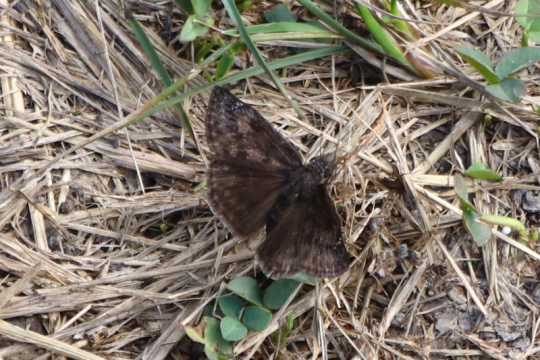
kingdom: Animalia
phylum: Arthropoda
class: Insecta
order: Lepidoptera
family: Hesperiidae
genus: Gesta
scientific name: Gesta
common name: Wild Indigo Duskywing
